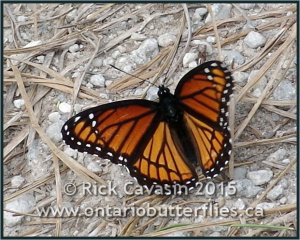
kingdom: Animalia
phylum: Arthropoda
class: Insecta
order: Lepidoptera
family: Nymphalidae
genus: Limenitis
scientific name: Limenitis archippus
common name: Viceroy
